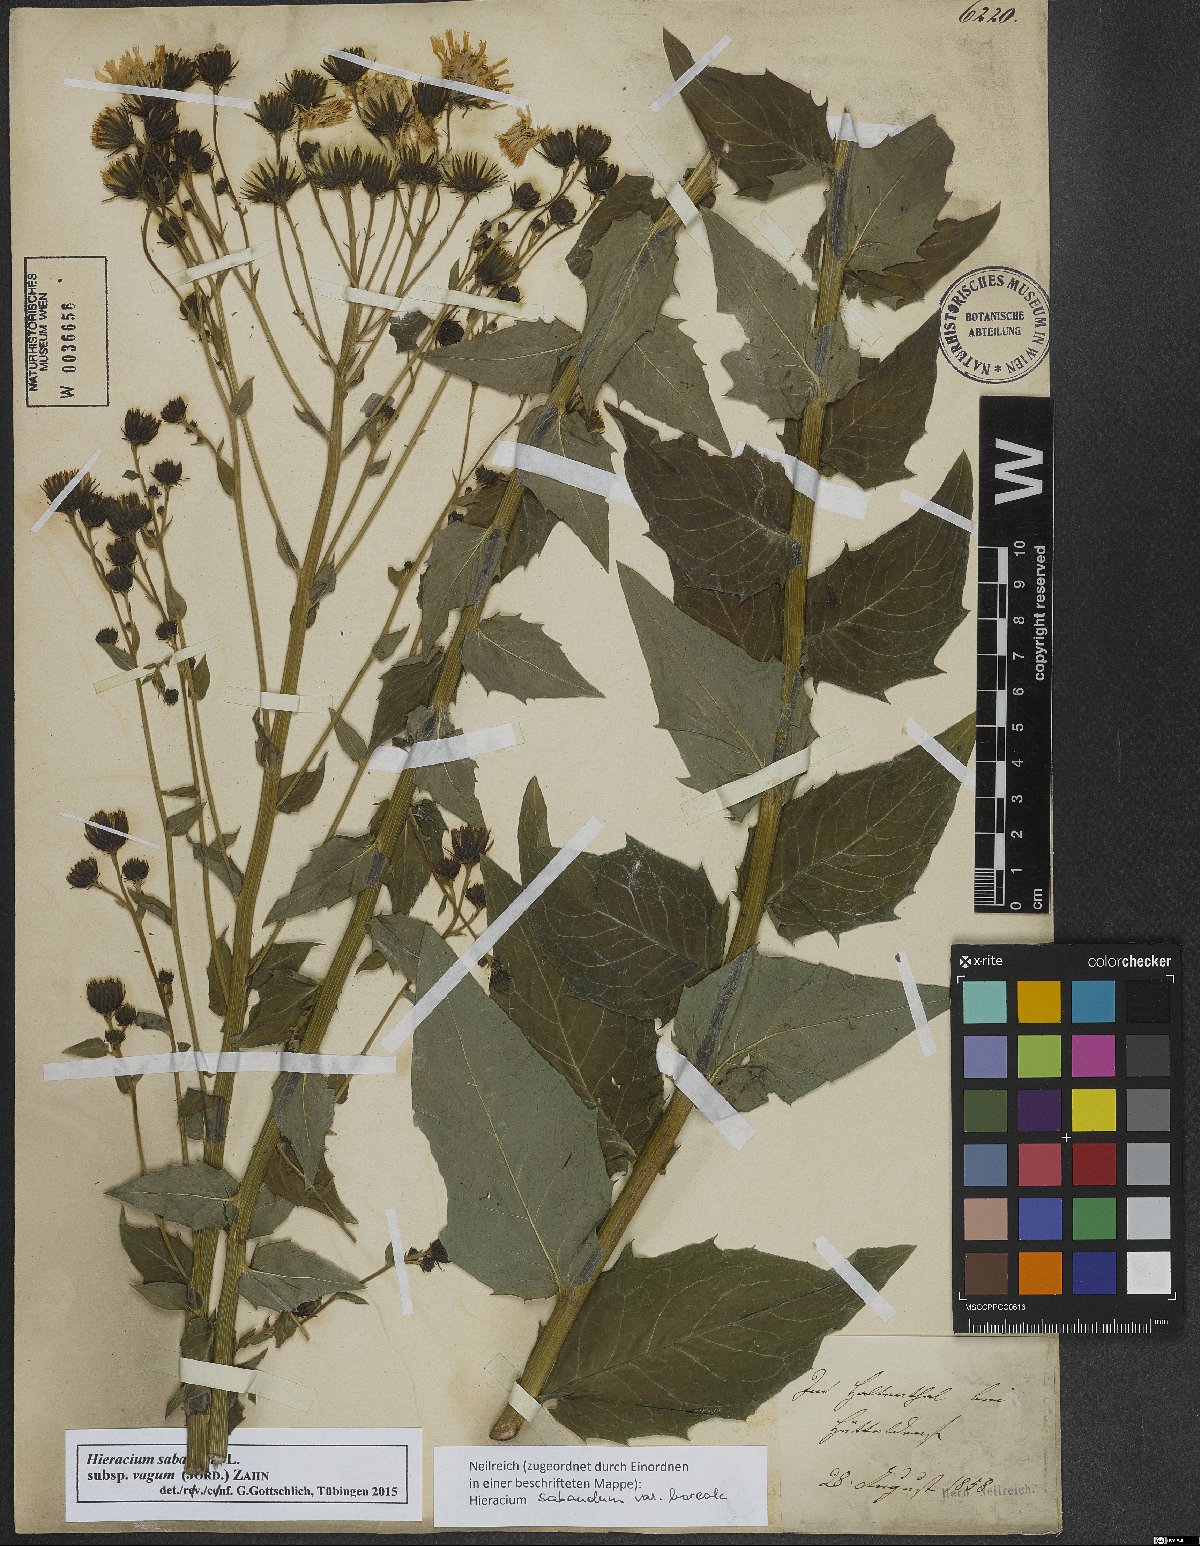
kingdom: Plantae
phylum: Tracheophyta
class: Magnoliopsida
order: Asterales
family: Asteraceae
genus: Hieracium
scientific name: Hieracium sabaudum
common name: New england hawkweed
